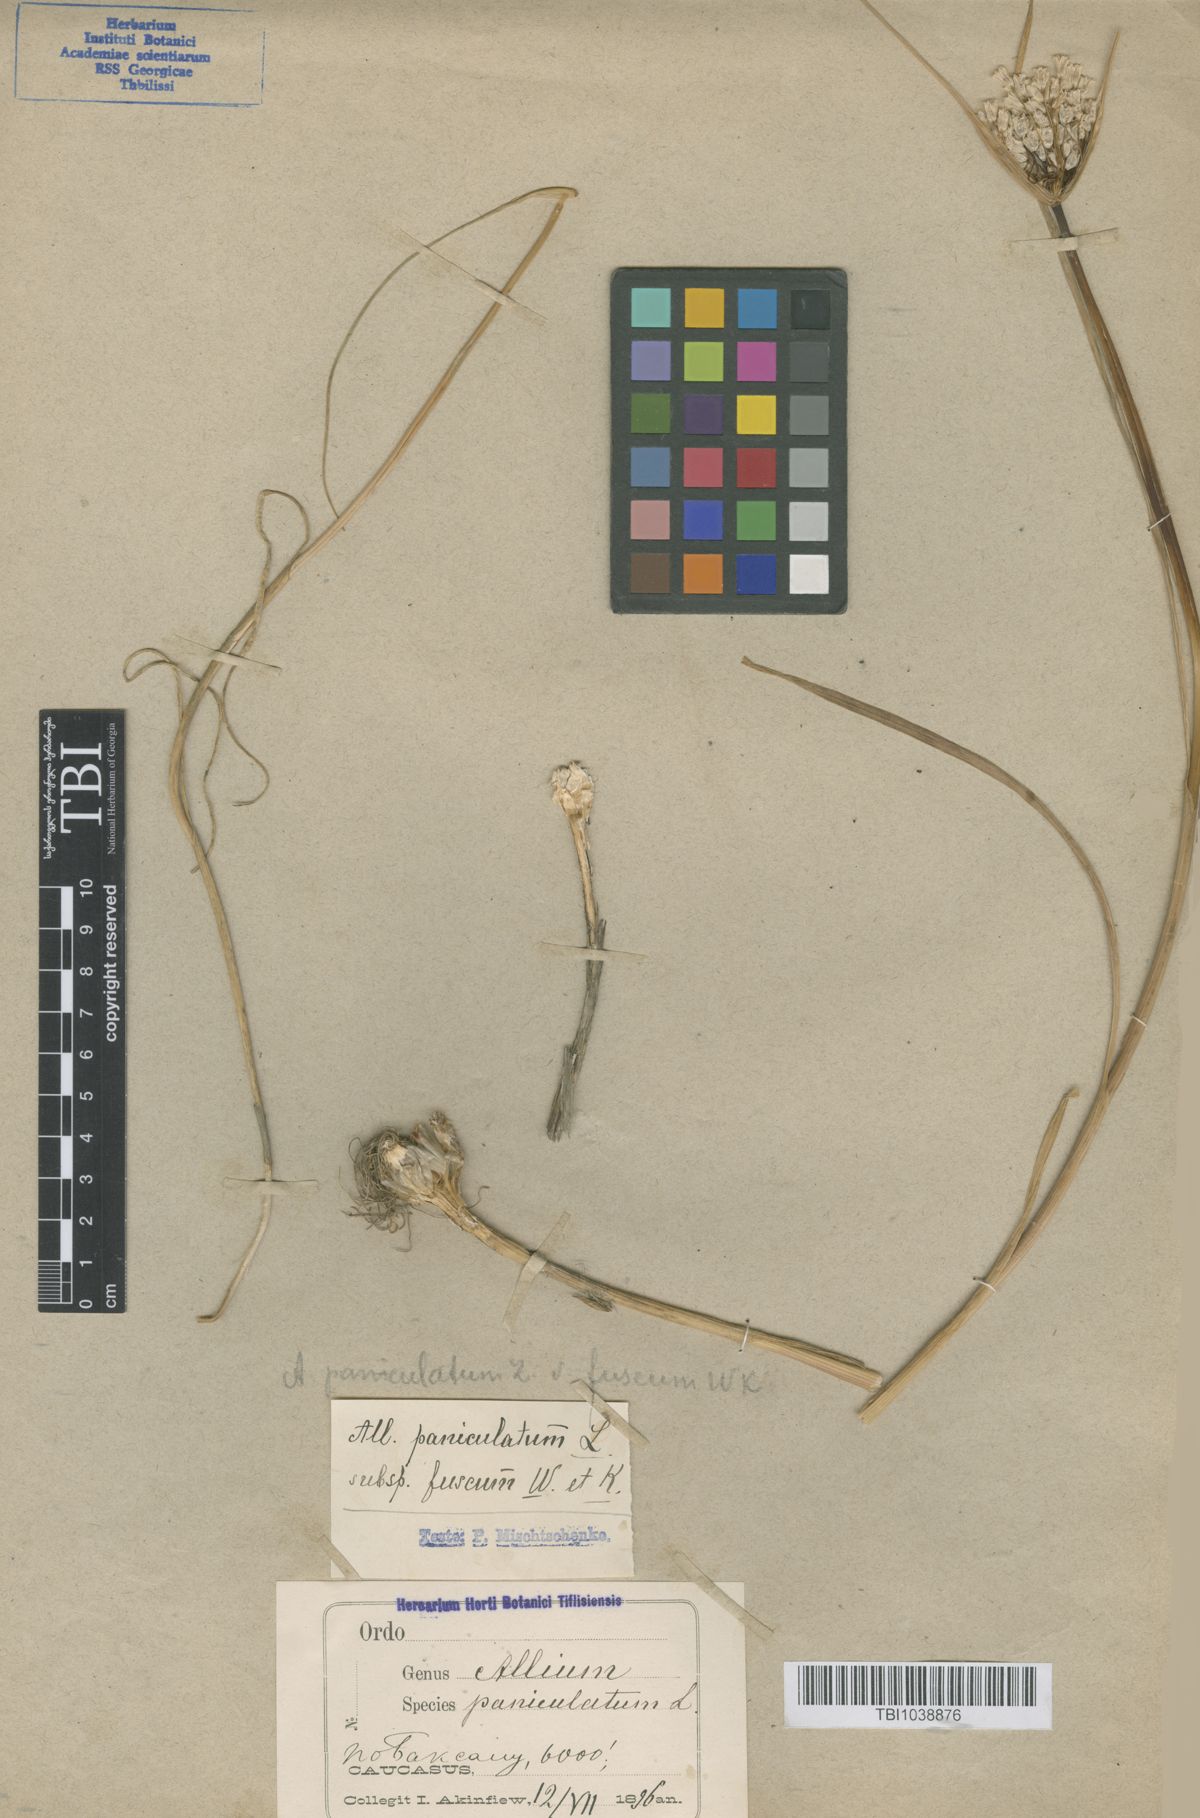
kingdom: Plantae
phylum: Tracheophyta
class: Liliopsida
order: Asparagales
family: Amaryllidaceae
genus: Allium
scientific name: Allium paniculatum
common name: Pale garlic
